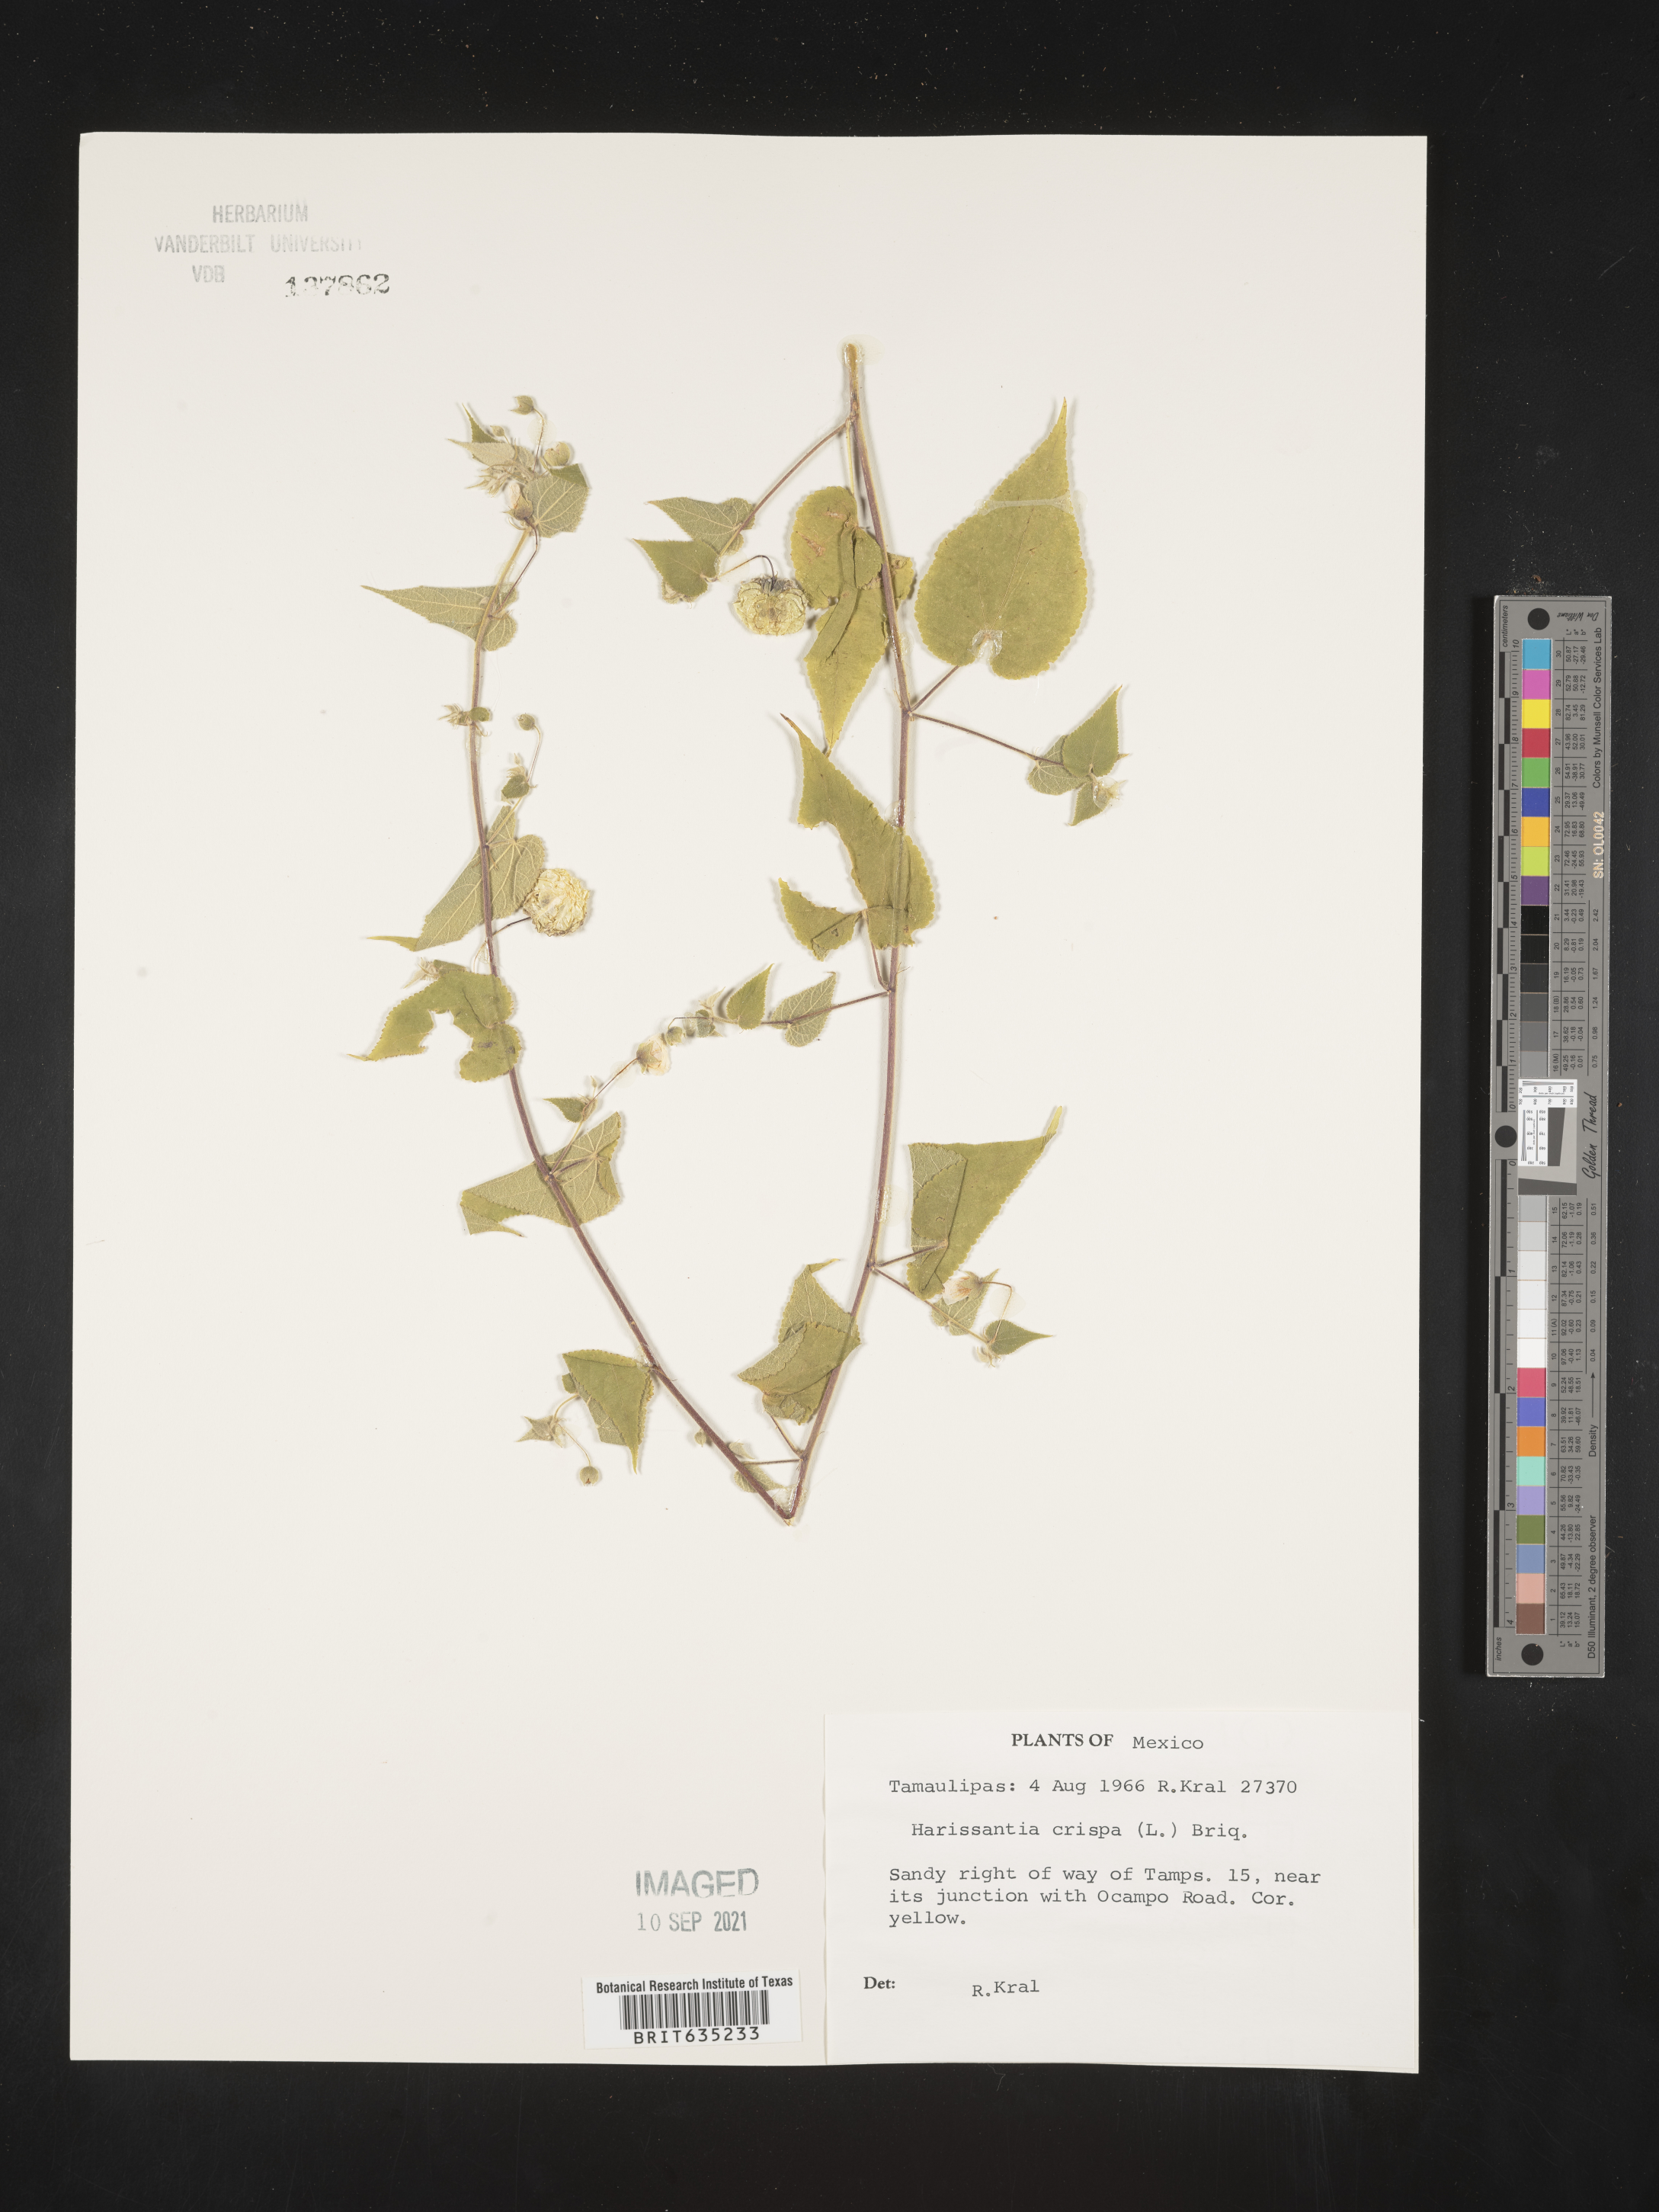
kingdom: Plantae
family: Gayoides
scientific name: Gayoides
